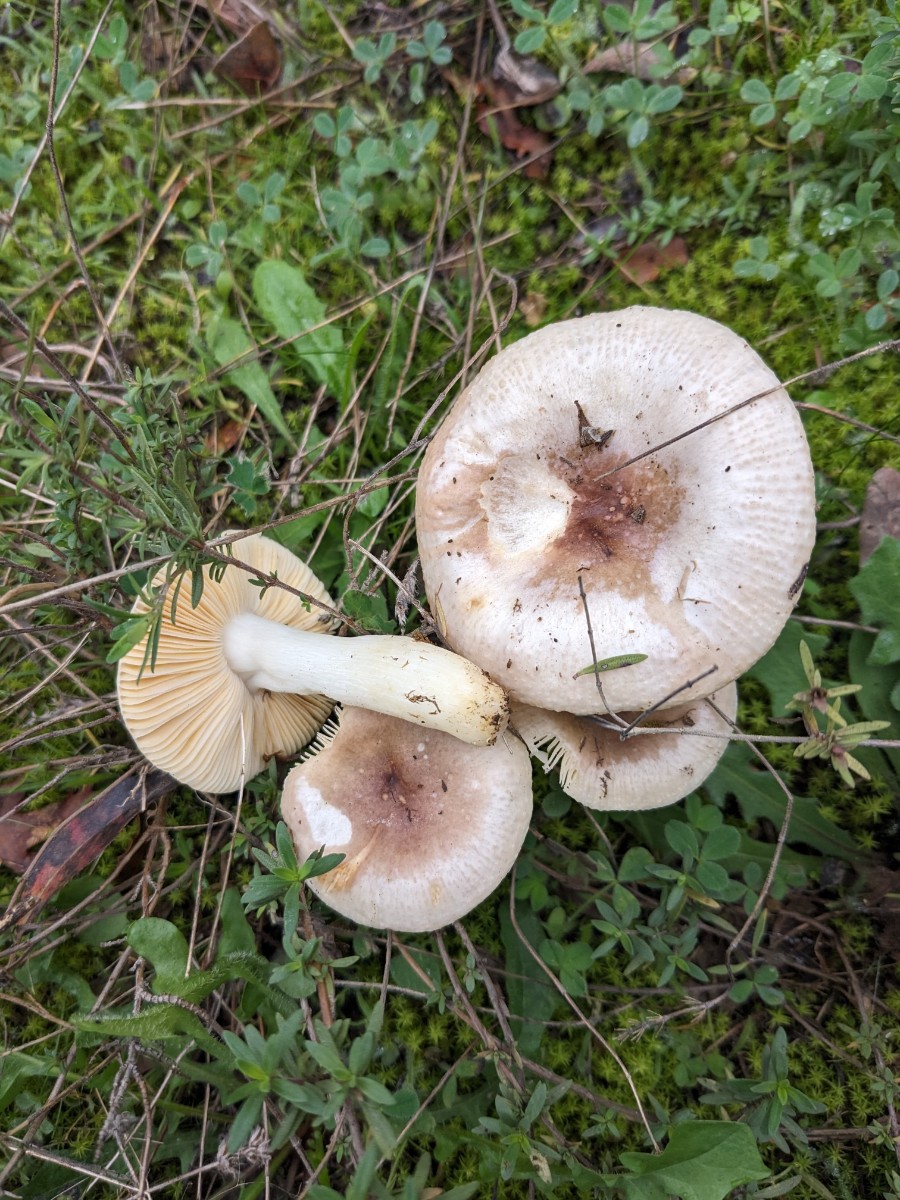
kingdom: Fungi
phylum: Basidiomycota
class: Agaricomycetes
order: Russulales
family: Russulaceae
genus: Russula
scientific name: Russula odorata
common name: duft-skørhat
